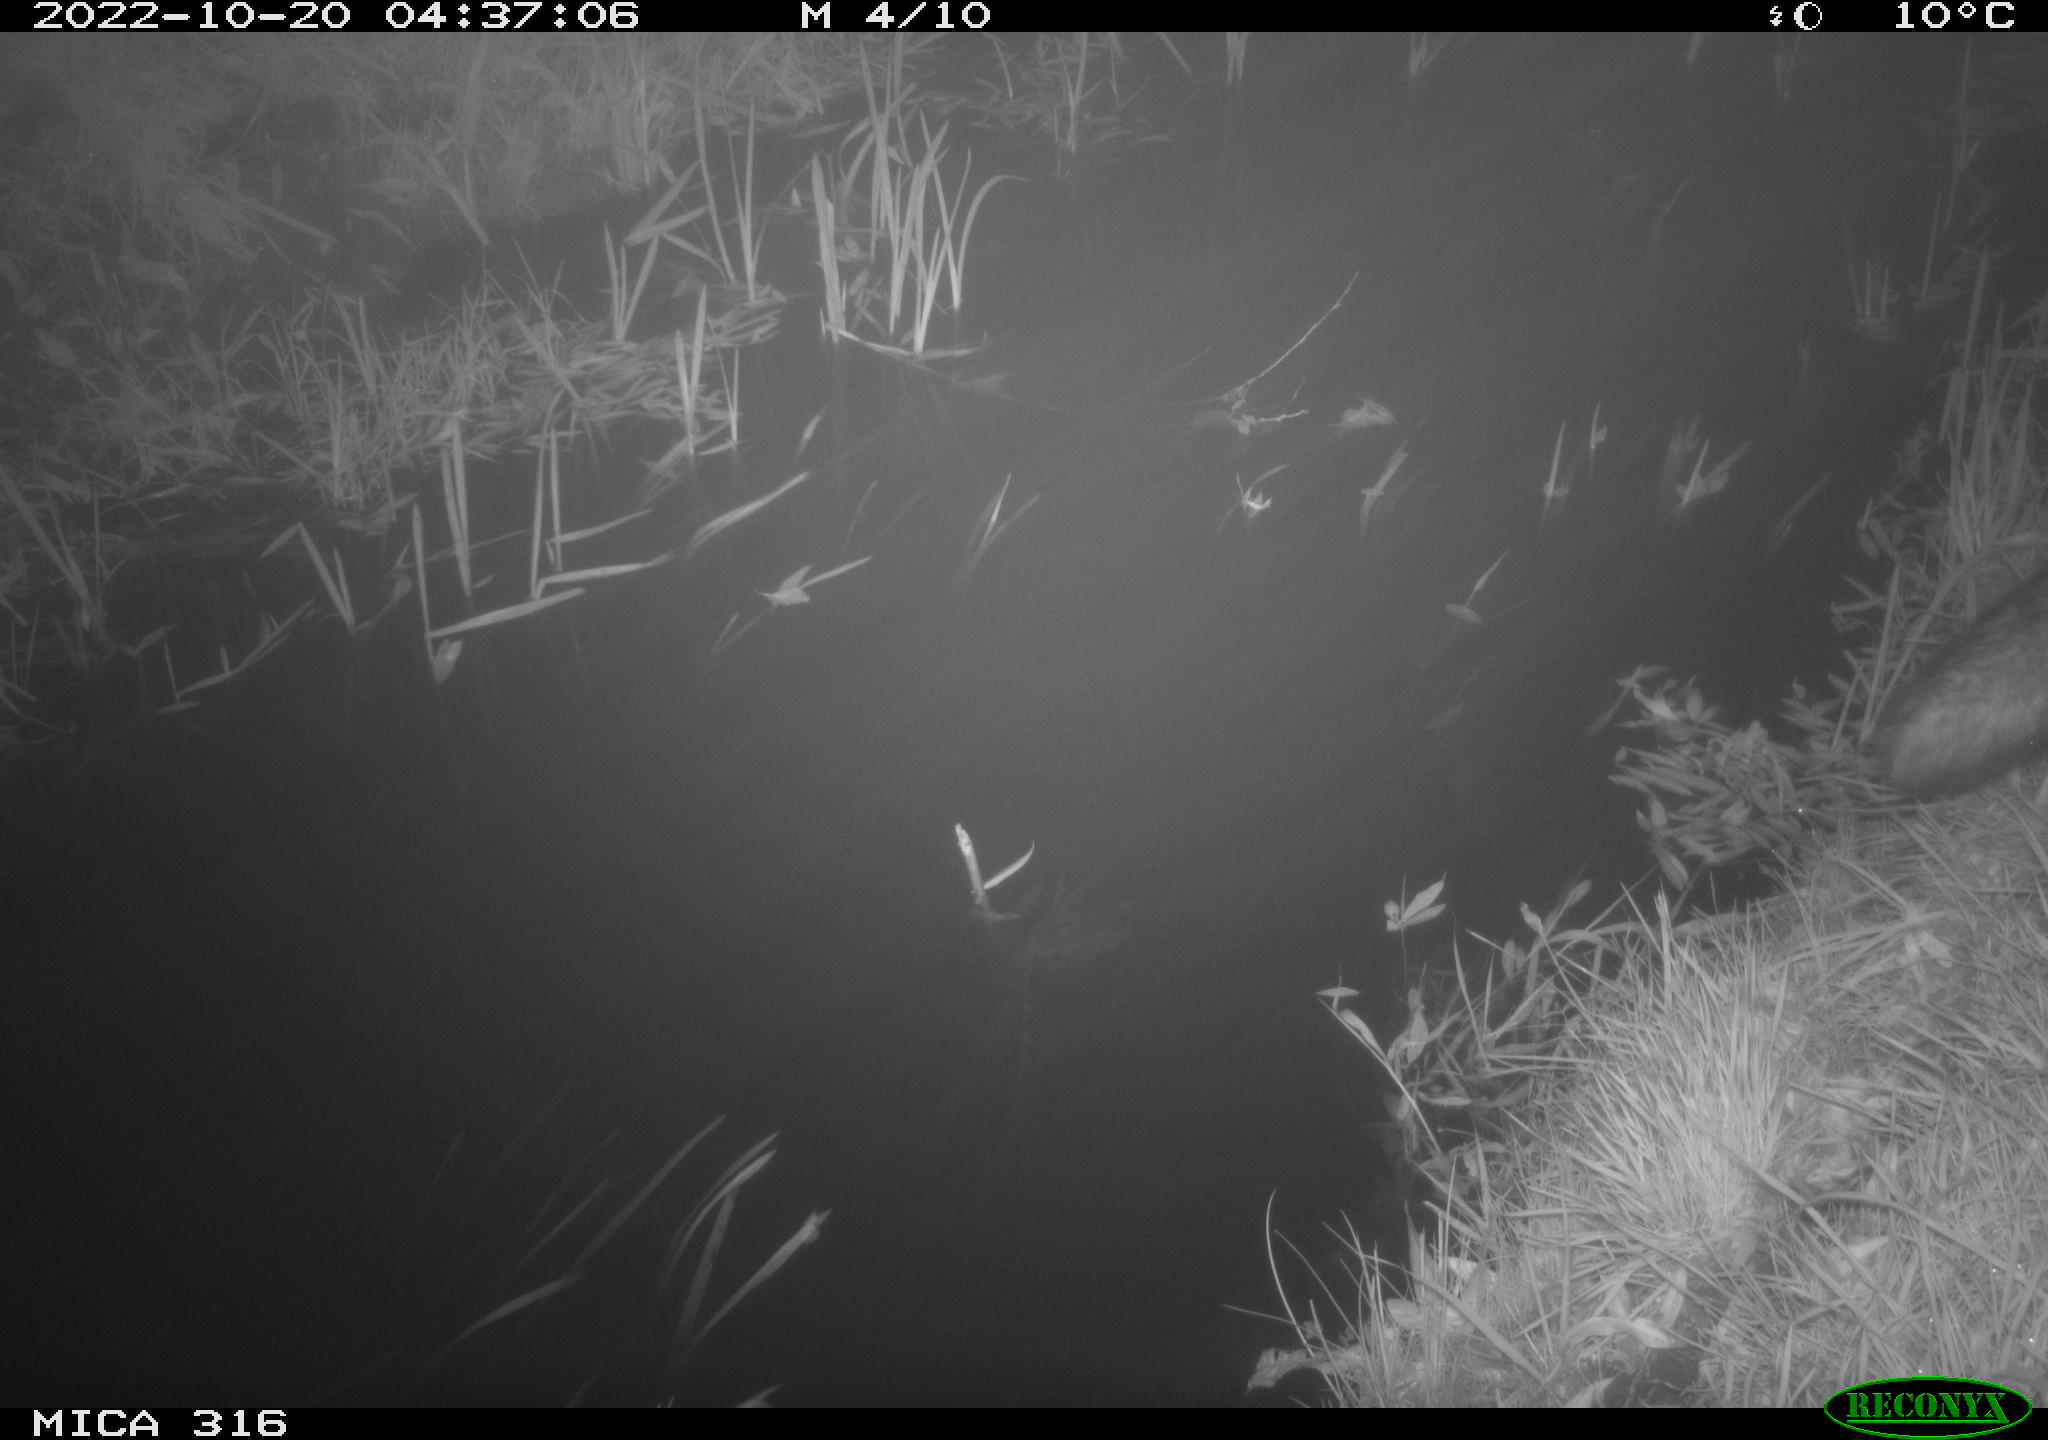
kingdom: Animalia
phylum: Chordata
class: Mammalia
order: Carnivora
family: Canidae
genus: Vulpes
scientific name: Vulpes vulpes
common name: Red fox
